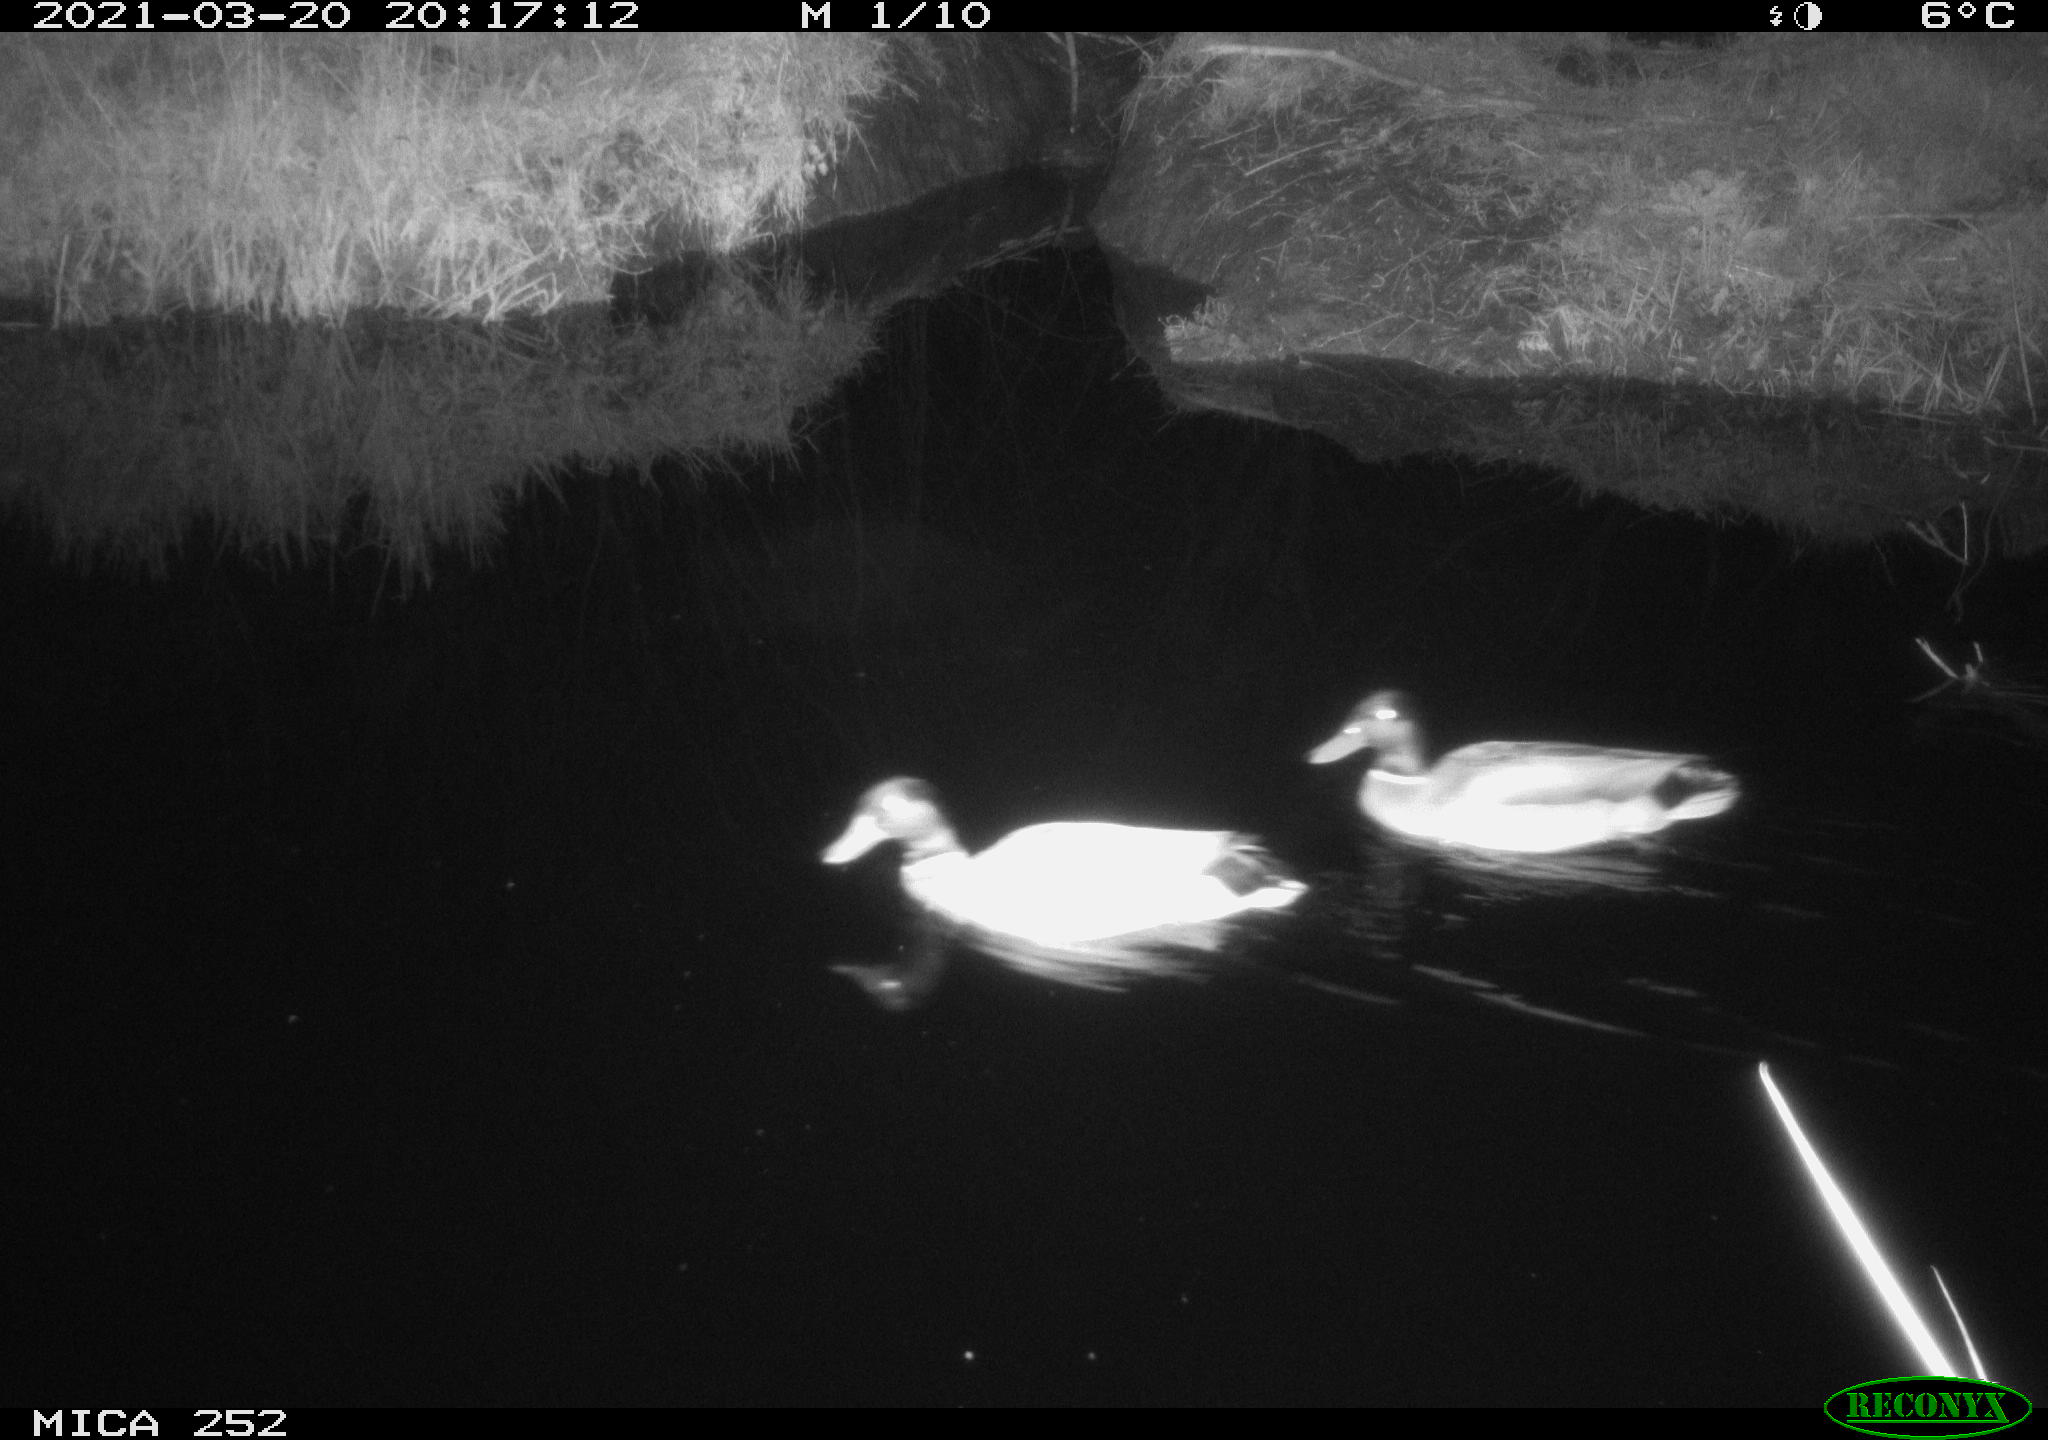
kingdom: Animalia
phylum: Chordata
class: Aves
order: Anseriformes
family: Anatidae
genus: Anas
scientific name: Anas platyrhynchos
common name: Mallard
